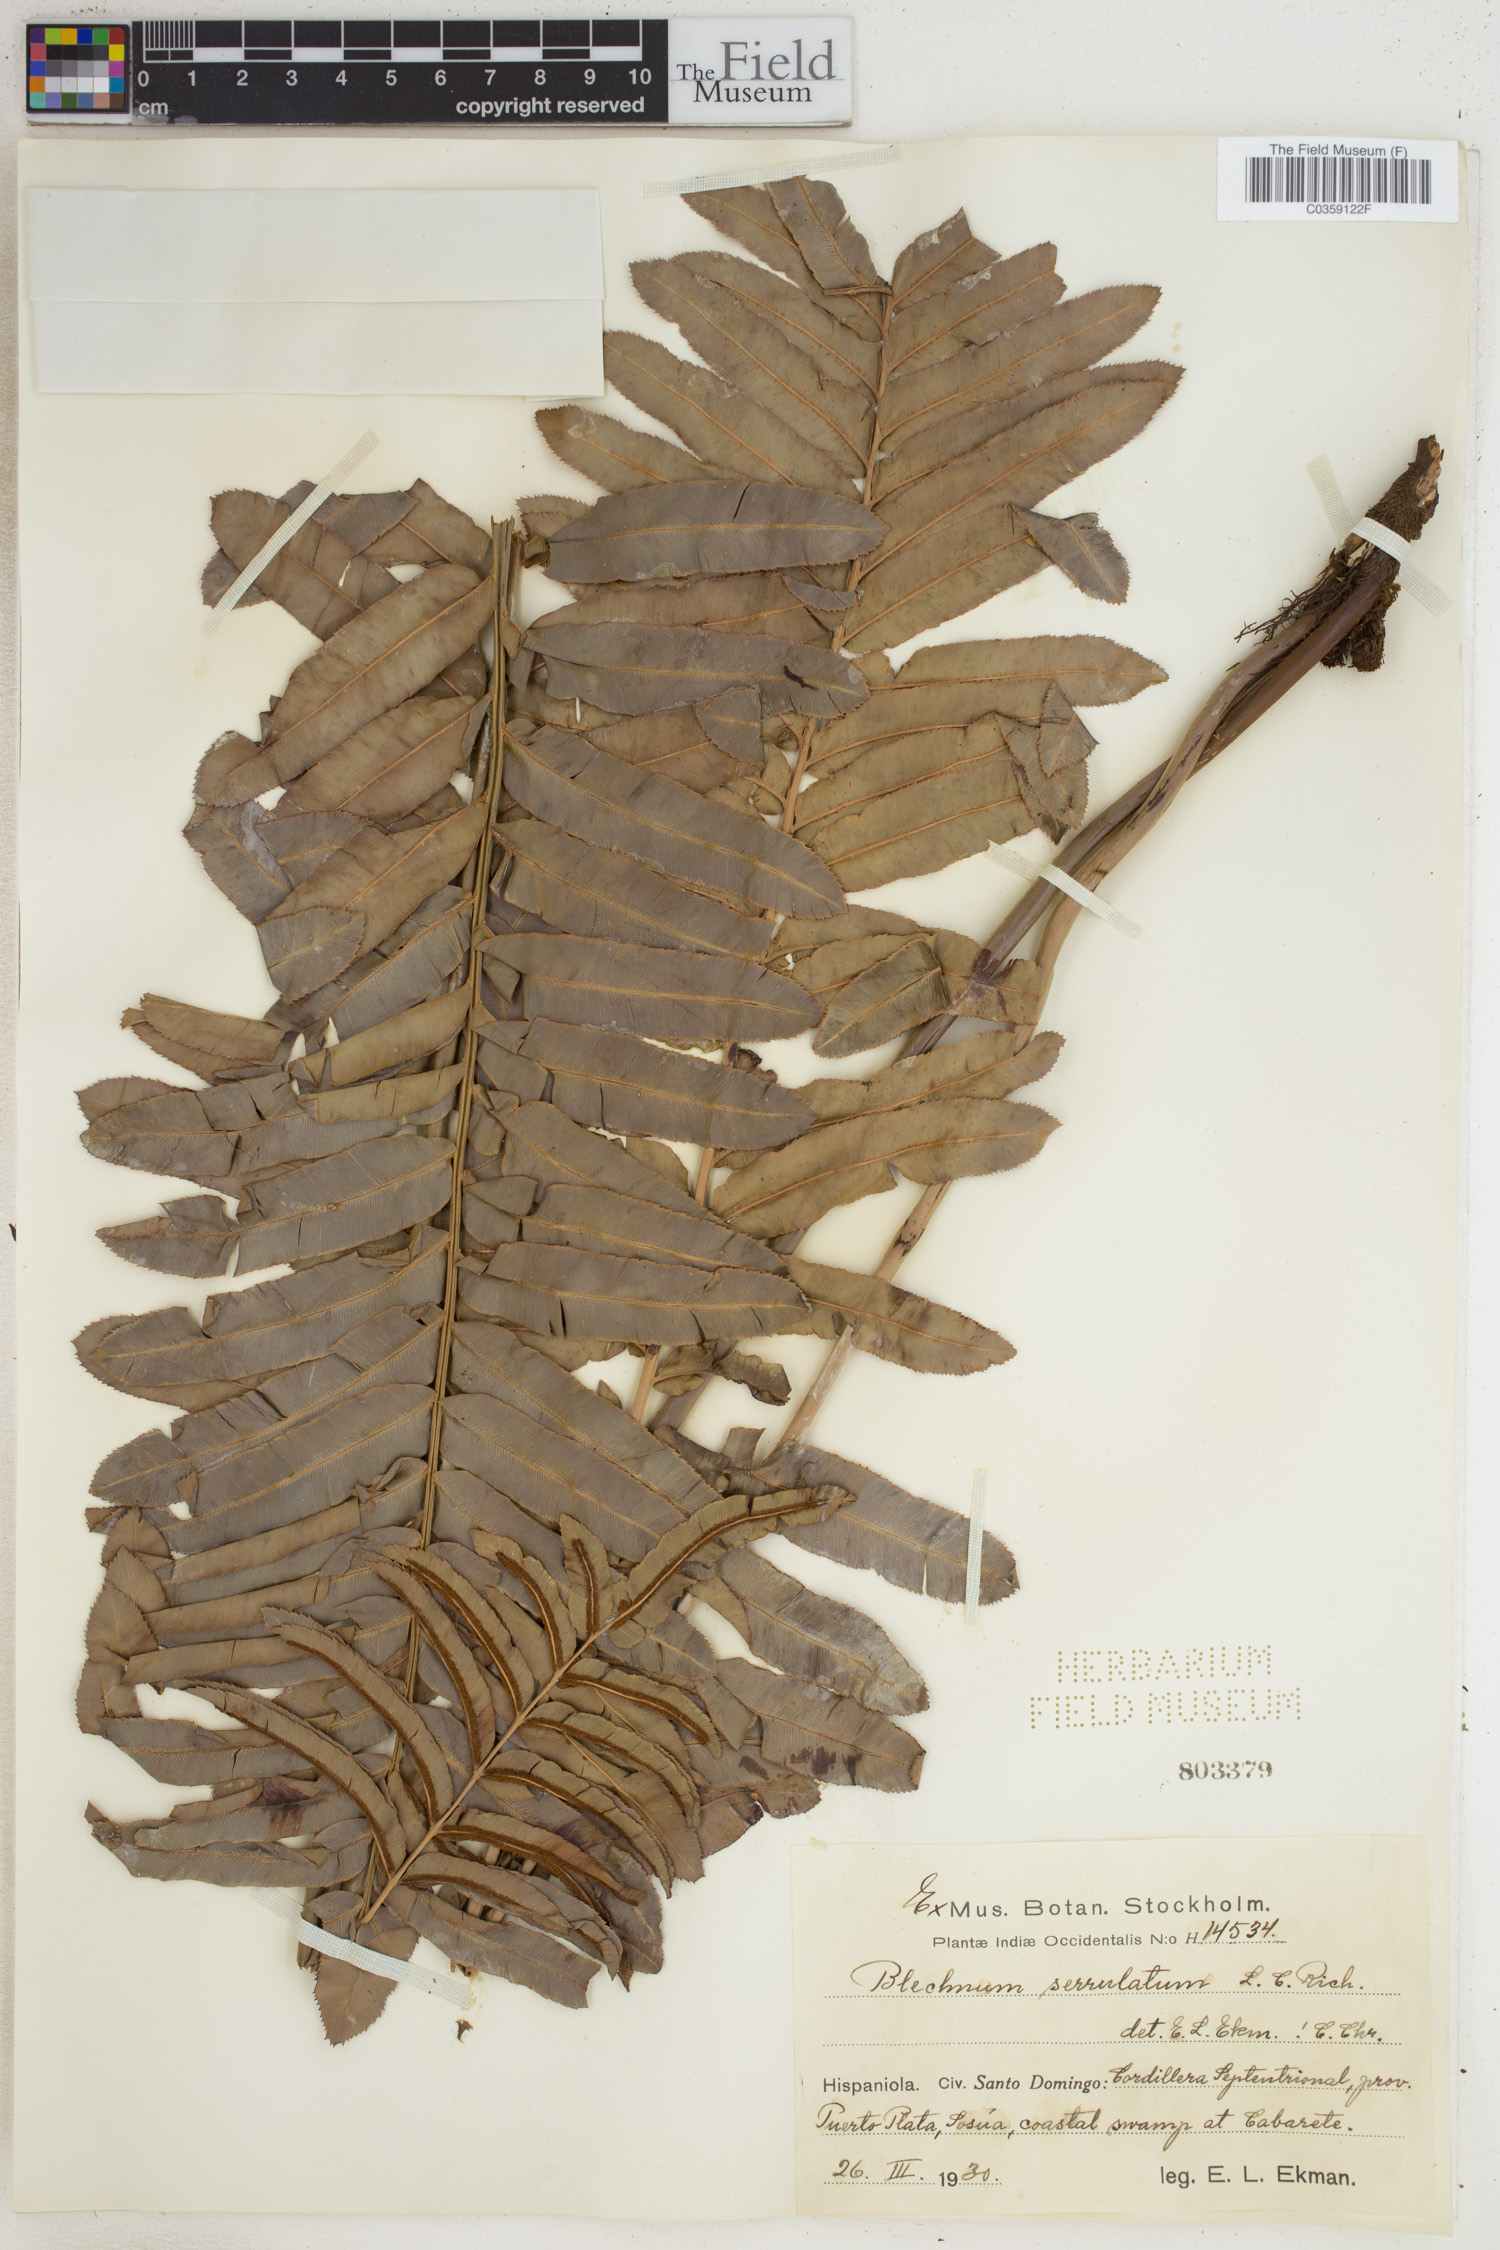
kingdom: Plantae
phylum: Tracheophyta
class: Polypodiopsida
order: Polypodiales
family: Blechnaceae
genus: Telmatoblechnum
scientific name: Telmatoblechnum serrulatum
